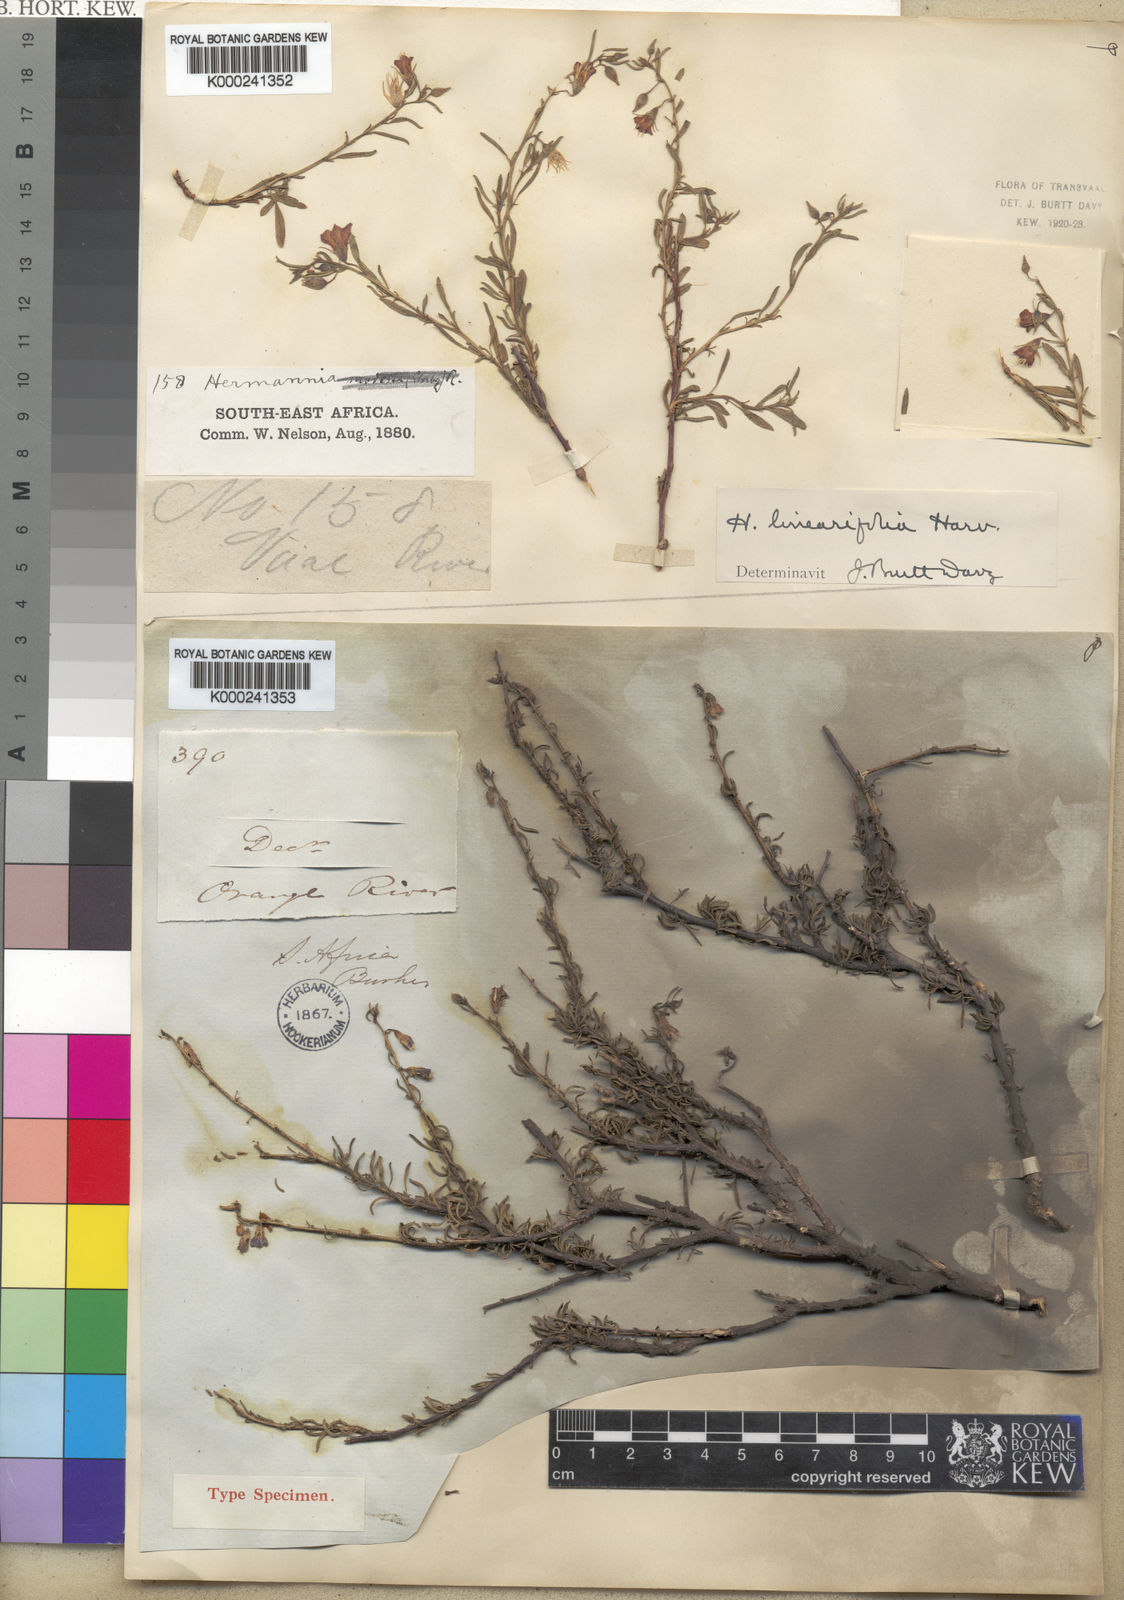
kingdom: Plantae
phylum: Tracheophyta
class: Magnoliopsida
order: Malvales
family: Malvaceae
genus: Hermannia
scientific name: Hermannia linearifolia
